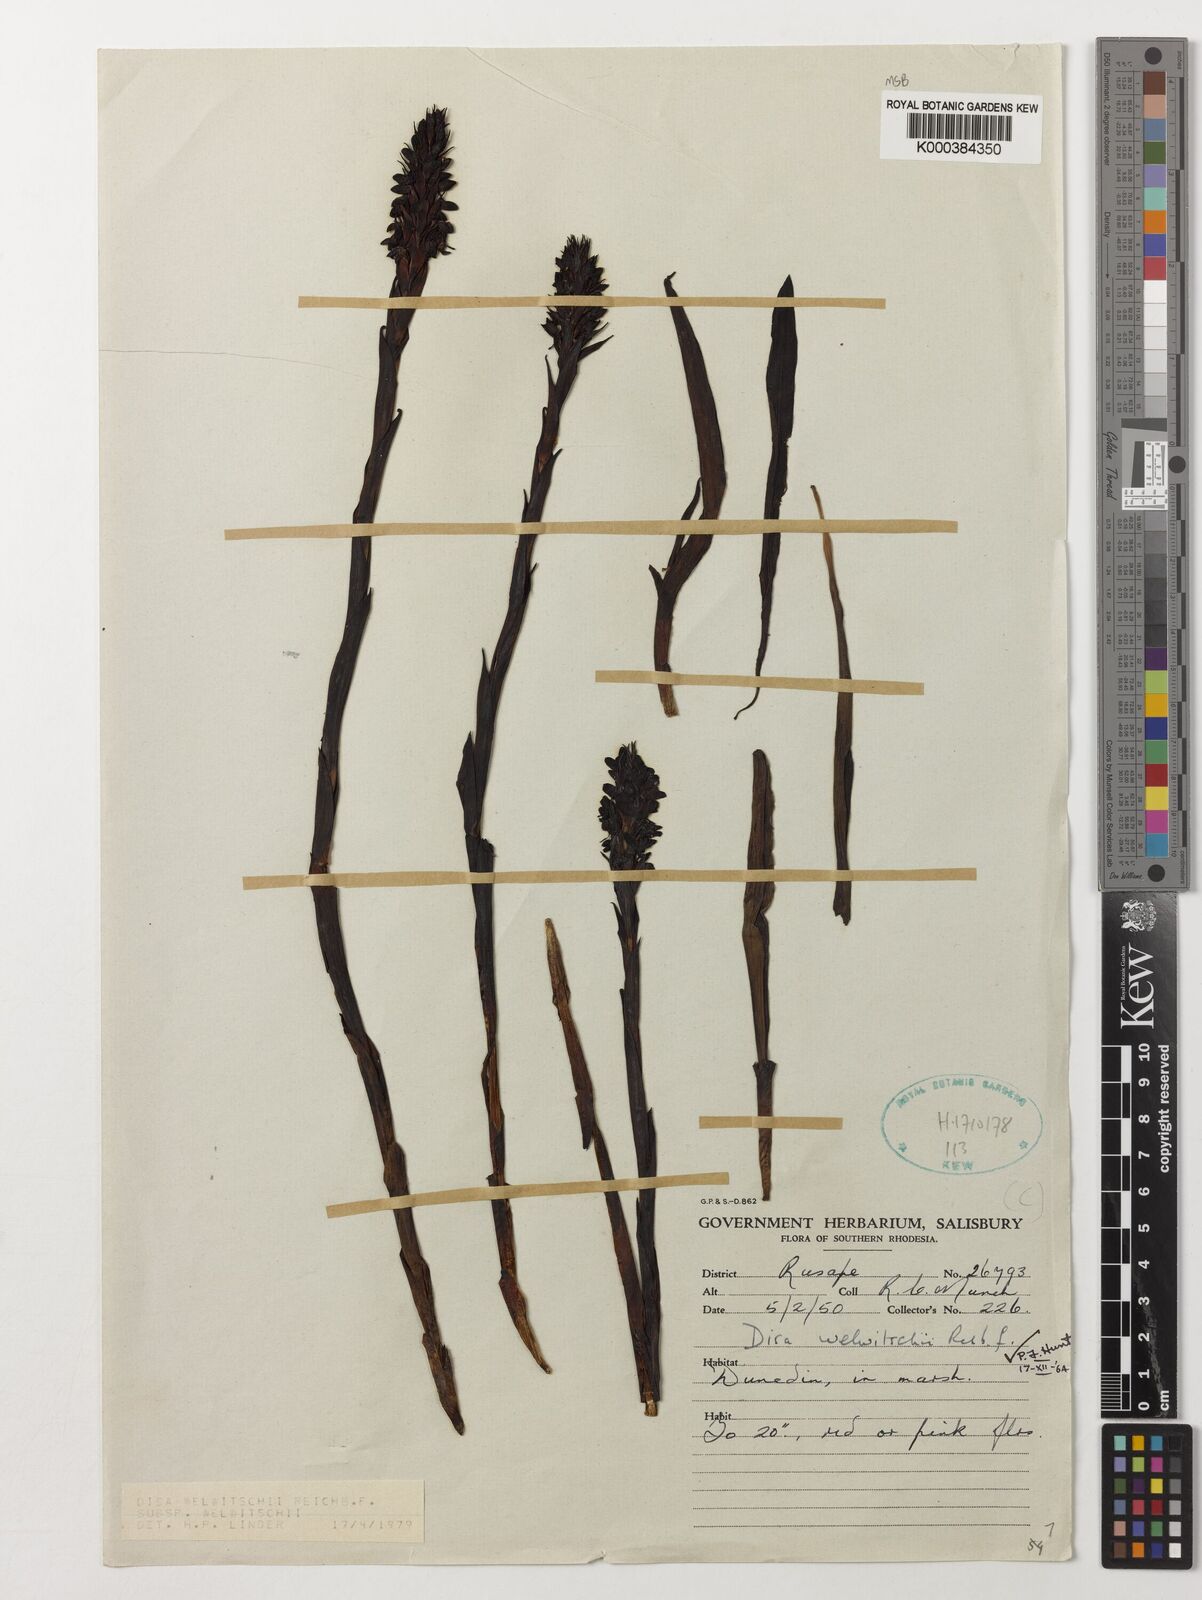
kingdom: Plantae
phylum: Tracheophyta
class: Liliopsida
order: Asparagales
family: Orchidaceae
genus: Disa
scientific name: Disa welwitschii
